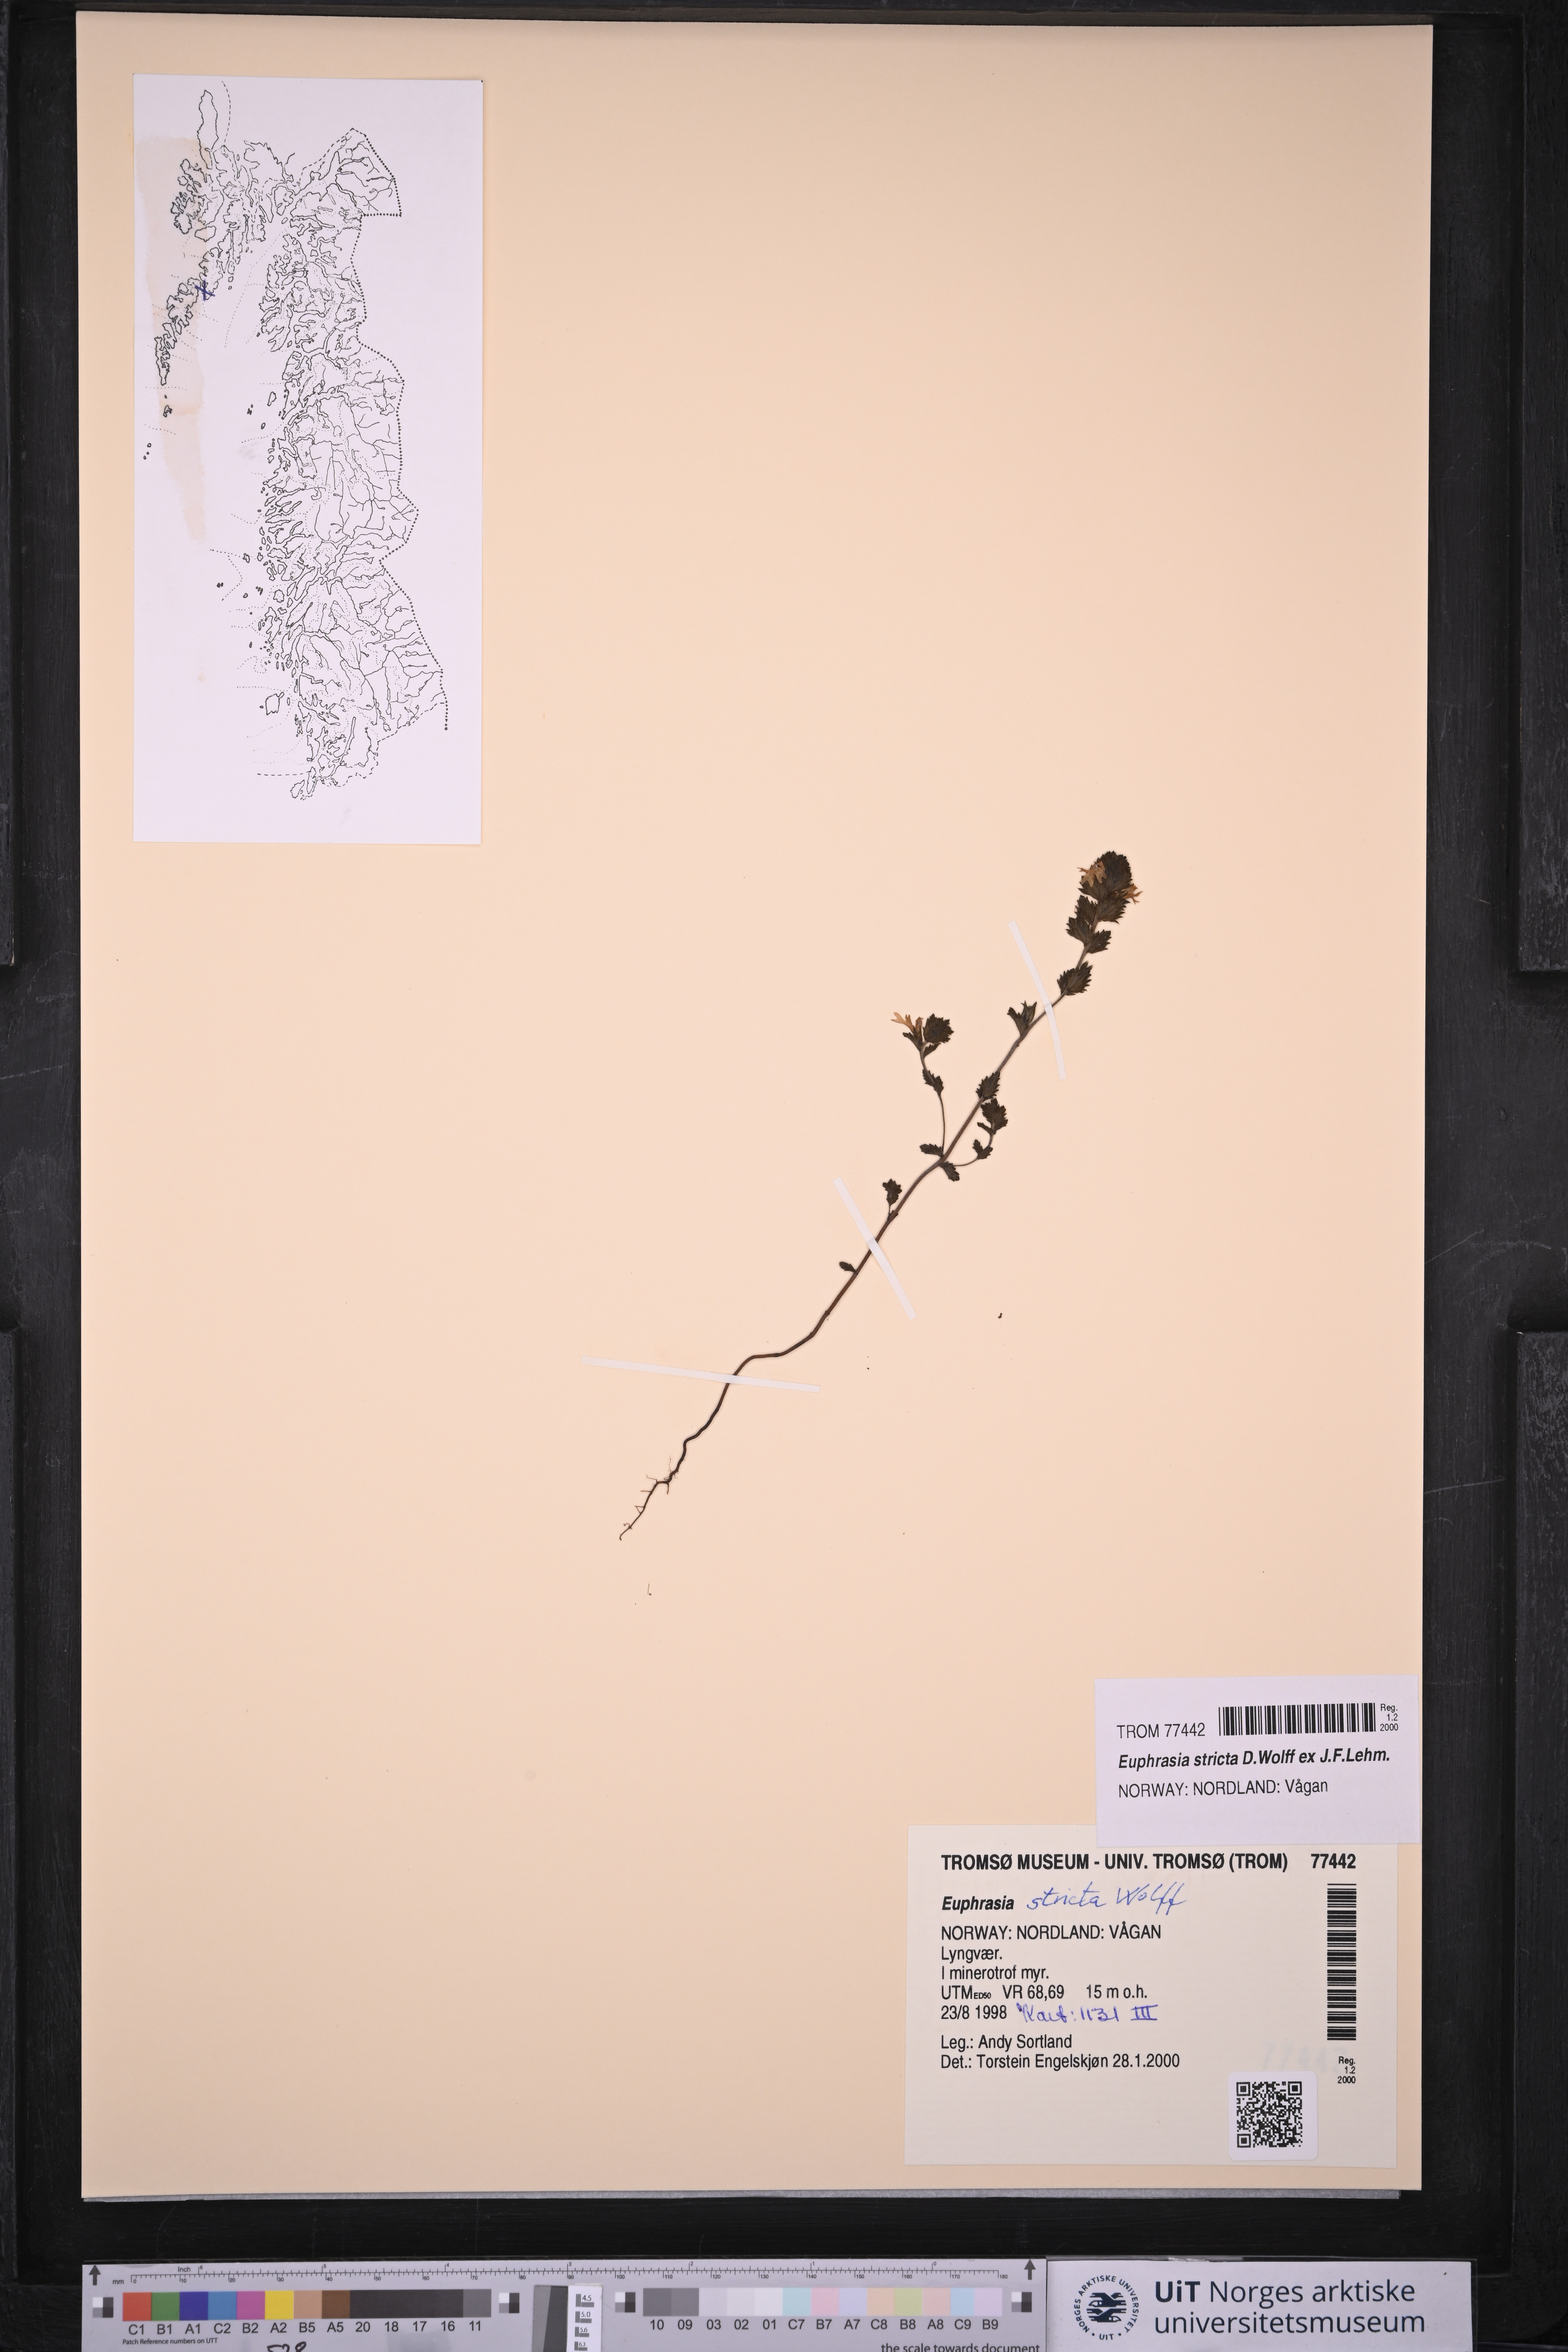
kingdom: Plantae
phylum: Tracheophyta
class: Magnoliopsida
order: Lamiales
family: Orobanchaceae
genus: Euphrasia
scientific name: Euphrasia stricta
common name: Drug eyebright
